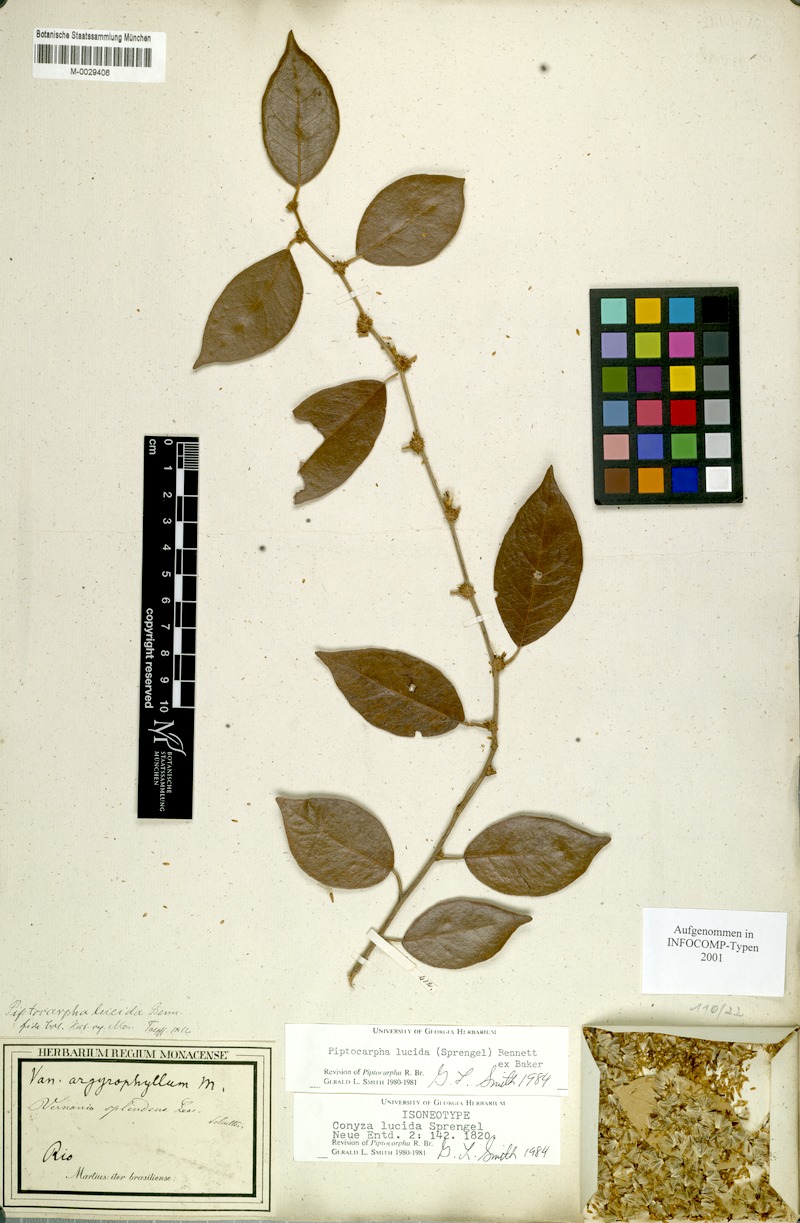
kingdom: Plantae
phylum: Tracheophyta
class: Magnoliopsida
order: Asterales
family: Asteraceae
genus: Piptocarpha
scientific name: Piptocarpha lucida
